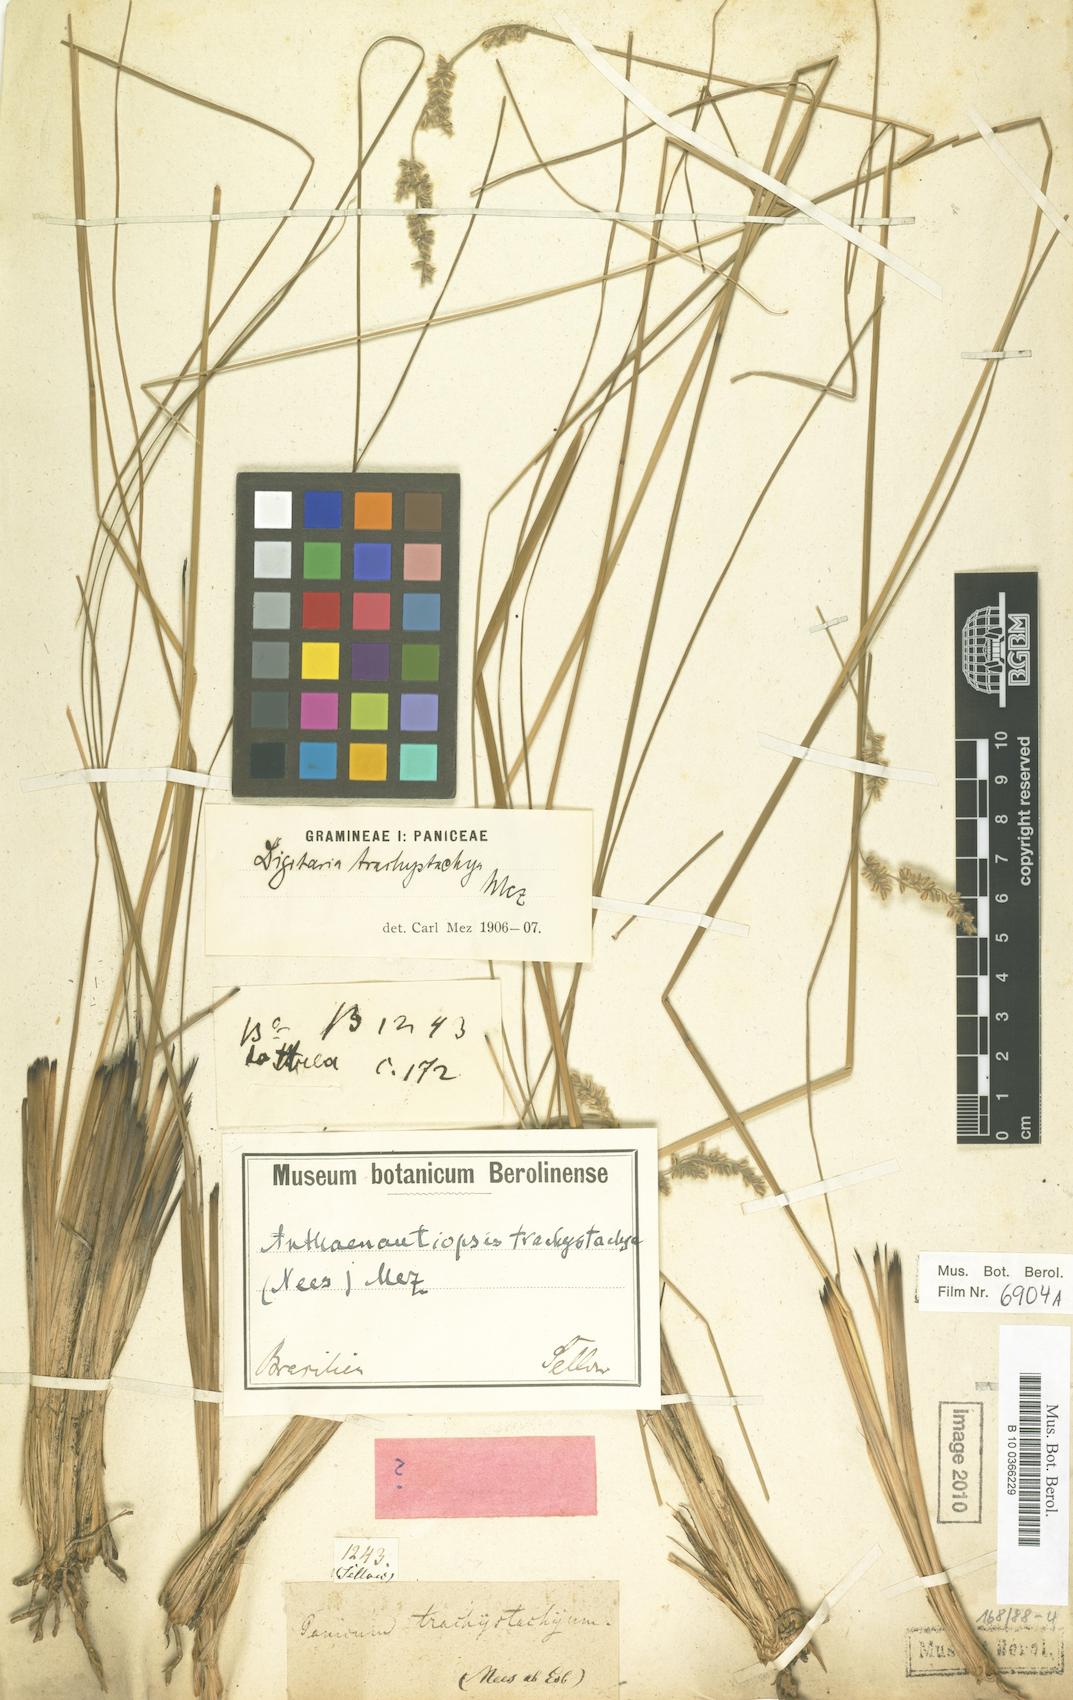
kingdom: Plantae
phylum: Tracheophyta
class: Liliopsida
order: Poales
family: Poaceae
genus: Anthaenantiopsis
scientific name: Anthaenantiopsis trachystachya
